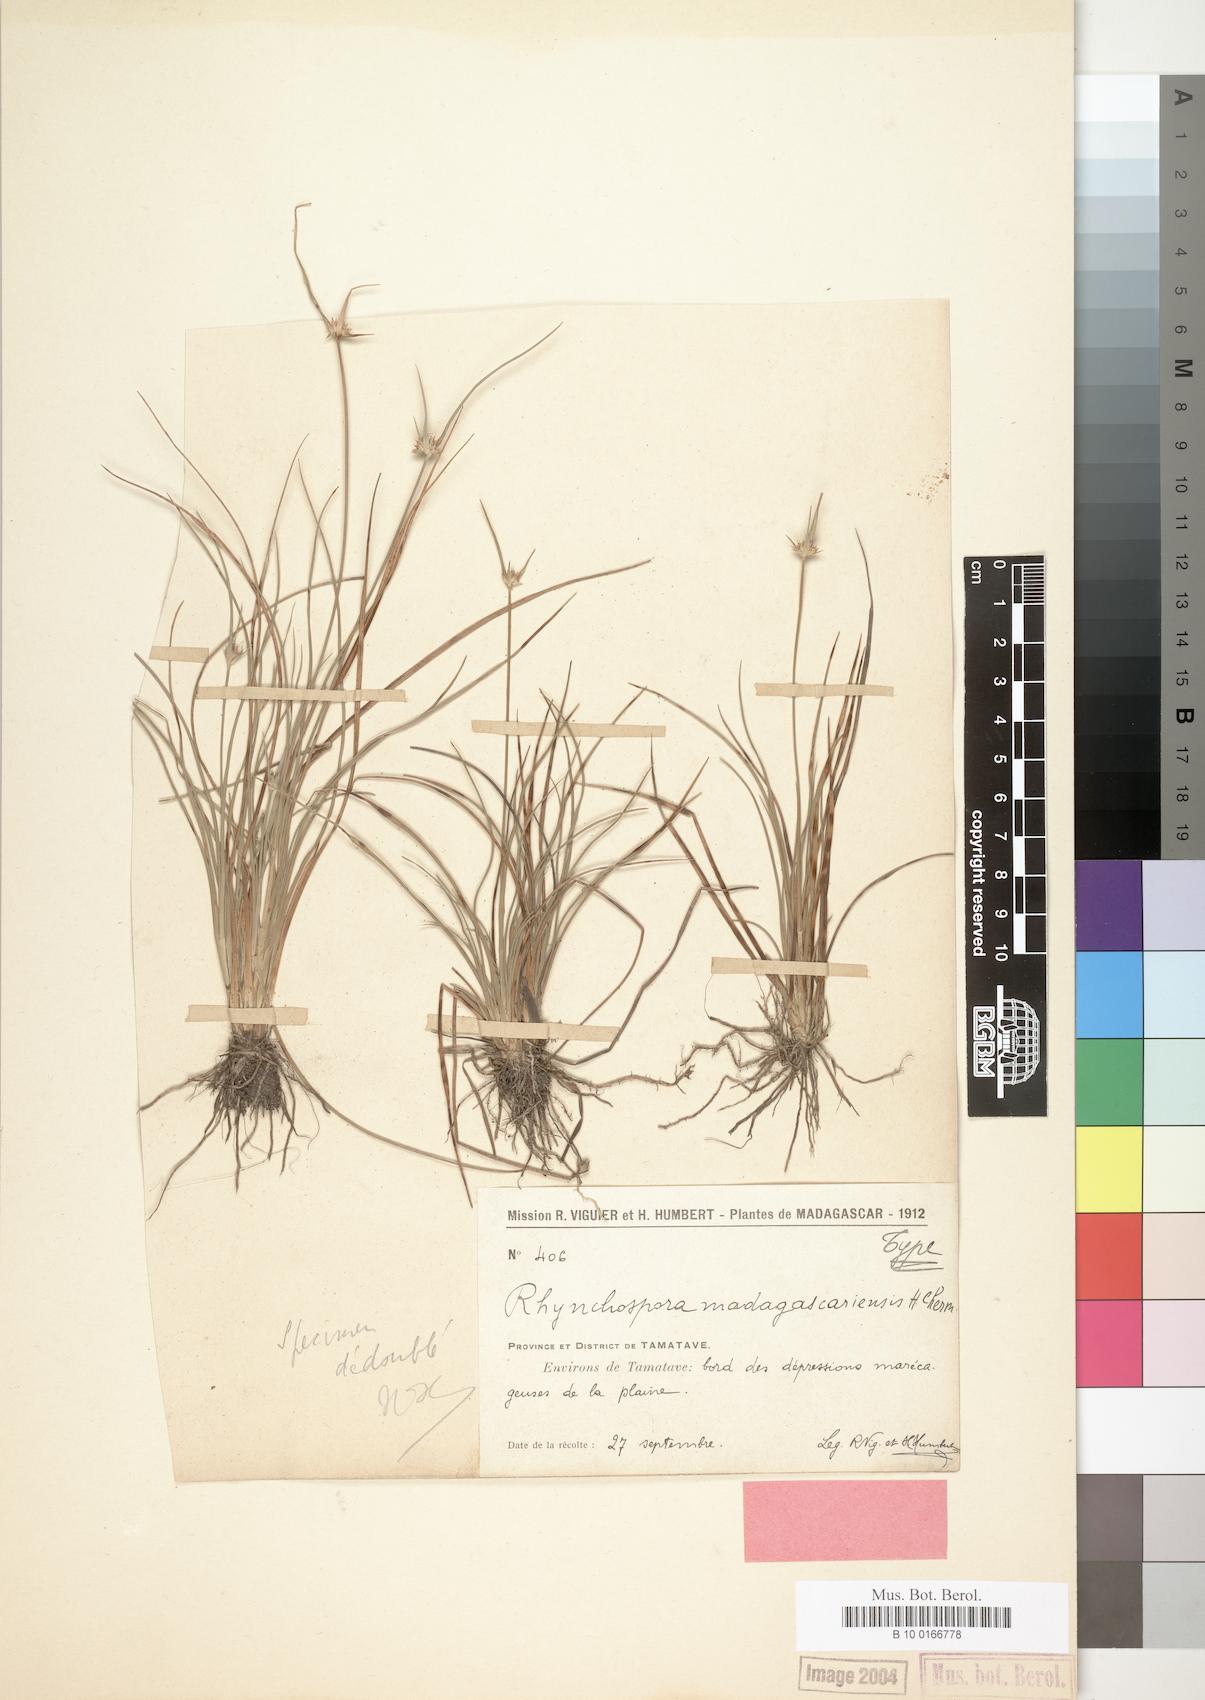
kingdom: Plantae
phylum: Tracheophyta
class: Liliopsida
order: Poales
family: Cyperaceae
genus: Rhynchospora
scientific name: Rhynchospora rubra
